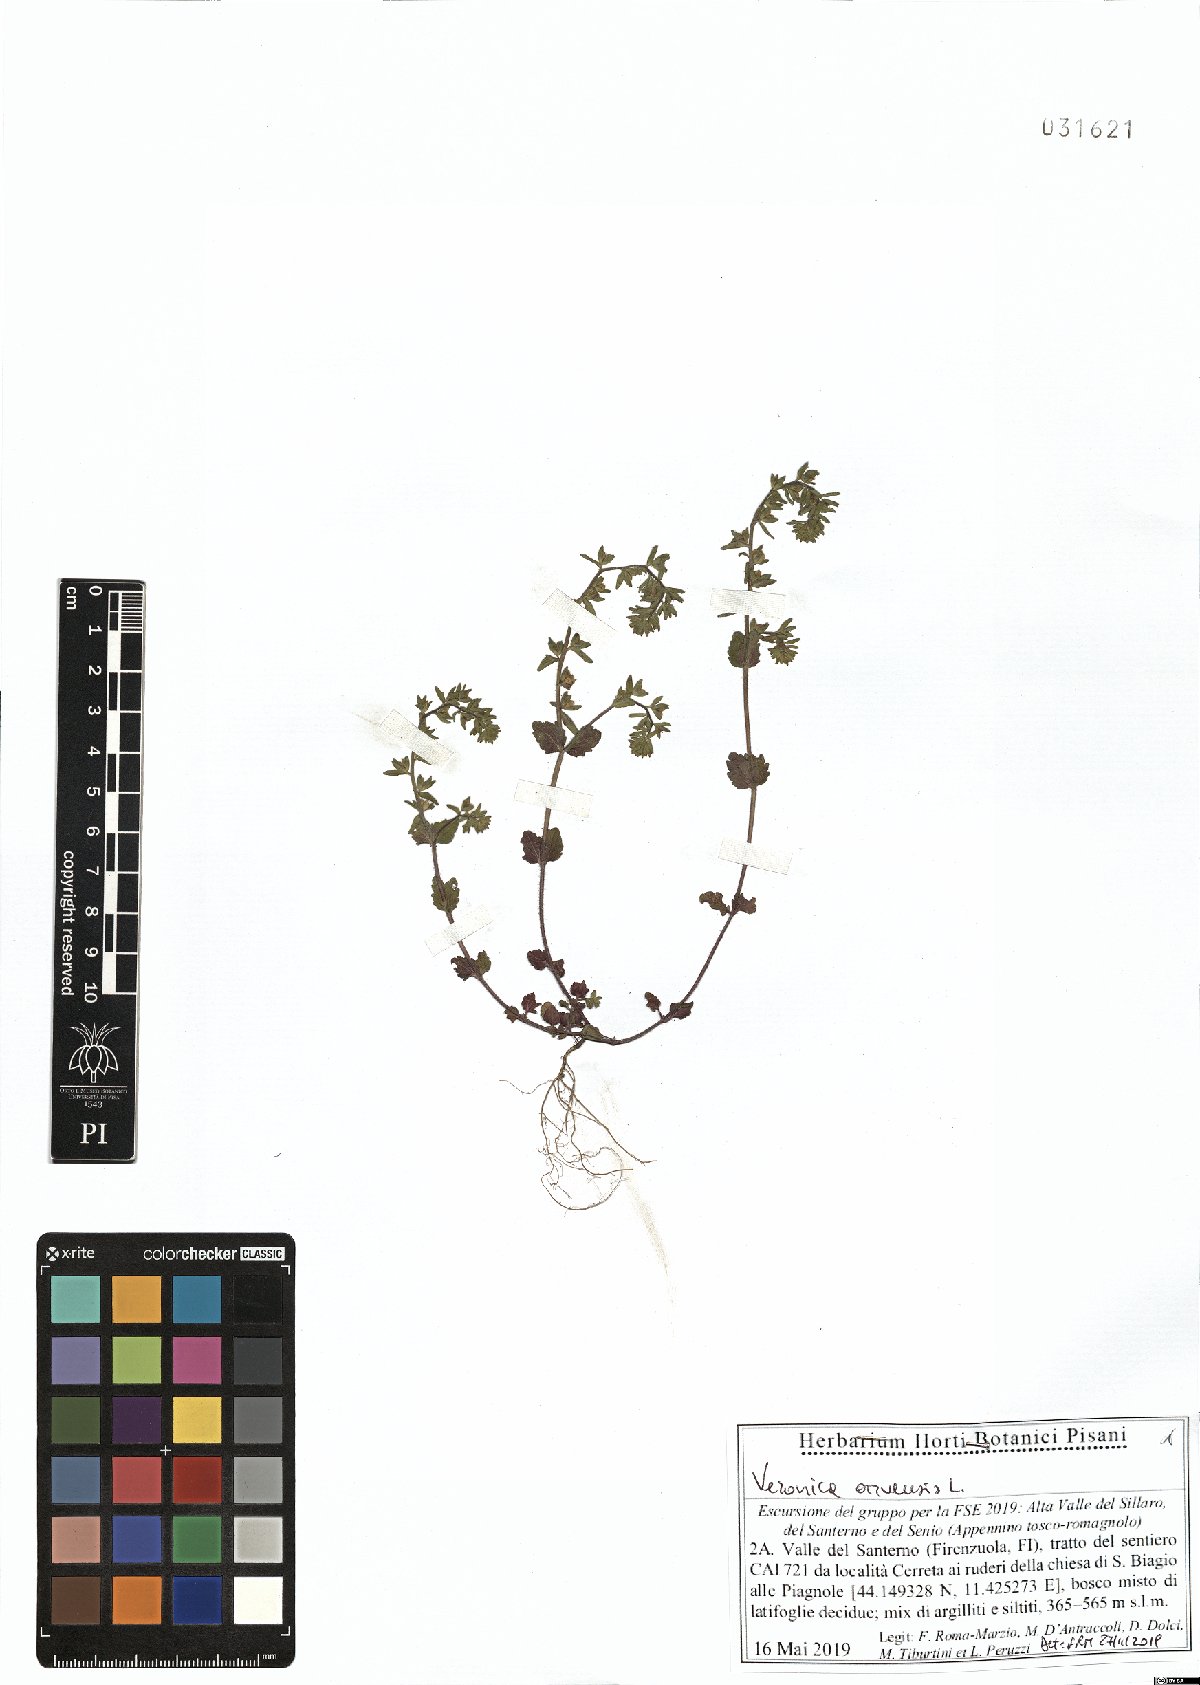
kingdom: Plantae
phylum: Tracheophyta
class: Magnoliopsida
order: Lamiales
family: Plantaginaceae
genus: Veronica
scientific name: Veronica arvensis
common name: Corn speedwell
